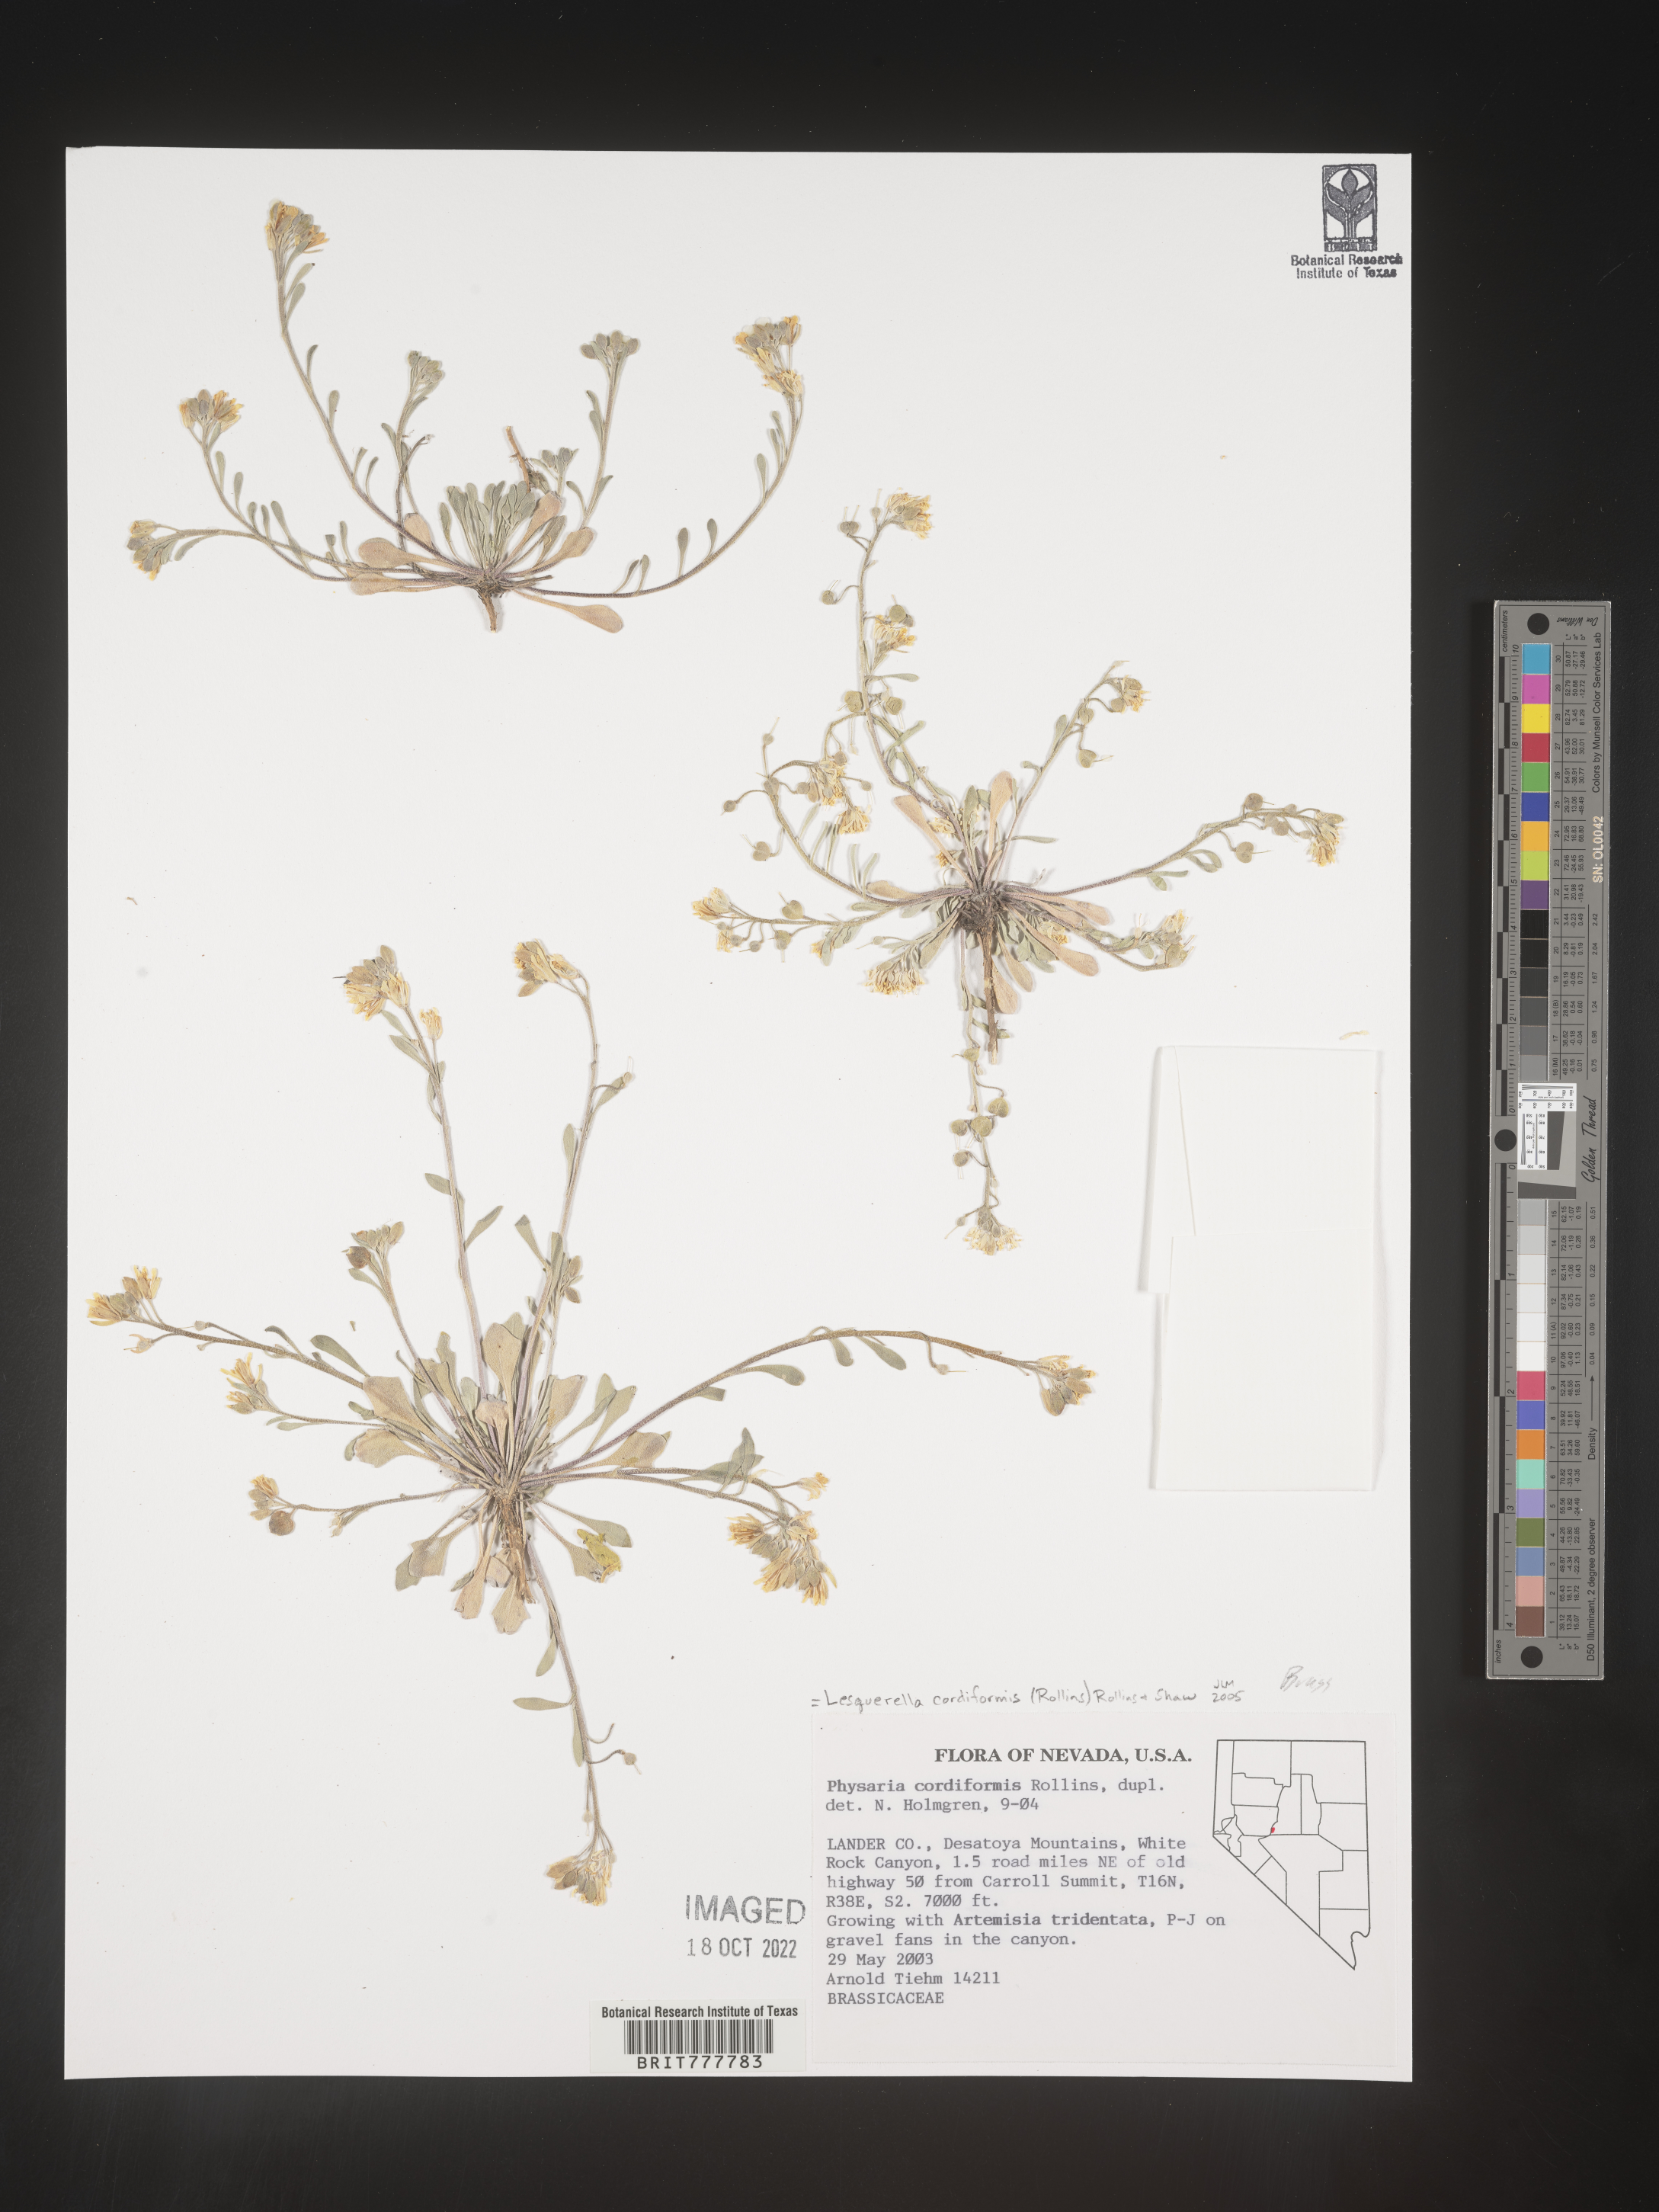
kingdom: Chromista
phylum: Cercozoa
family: Psammonobiotidae
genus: Lesquerella
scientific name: Lesquerella
